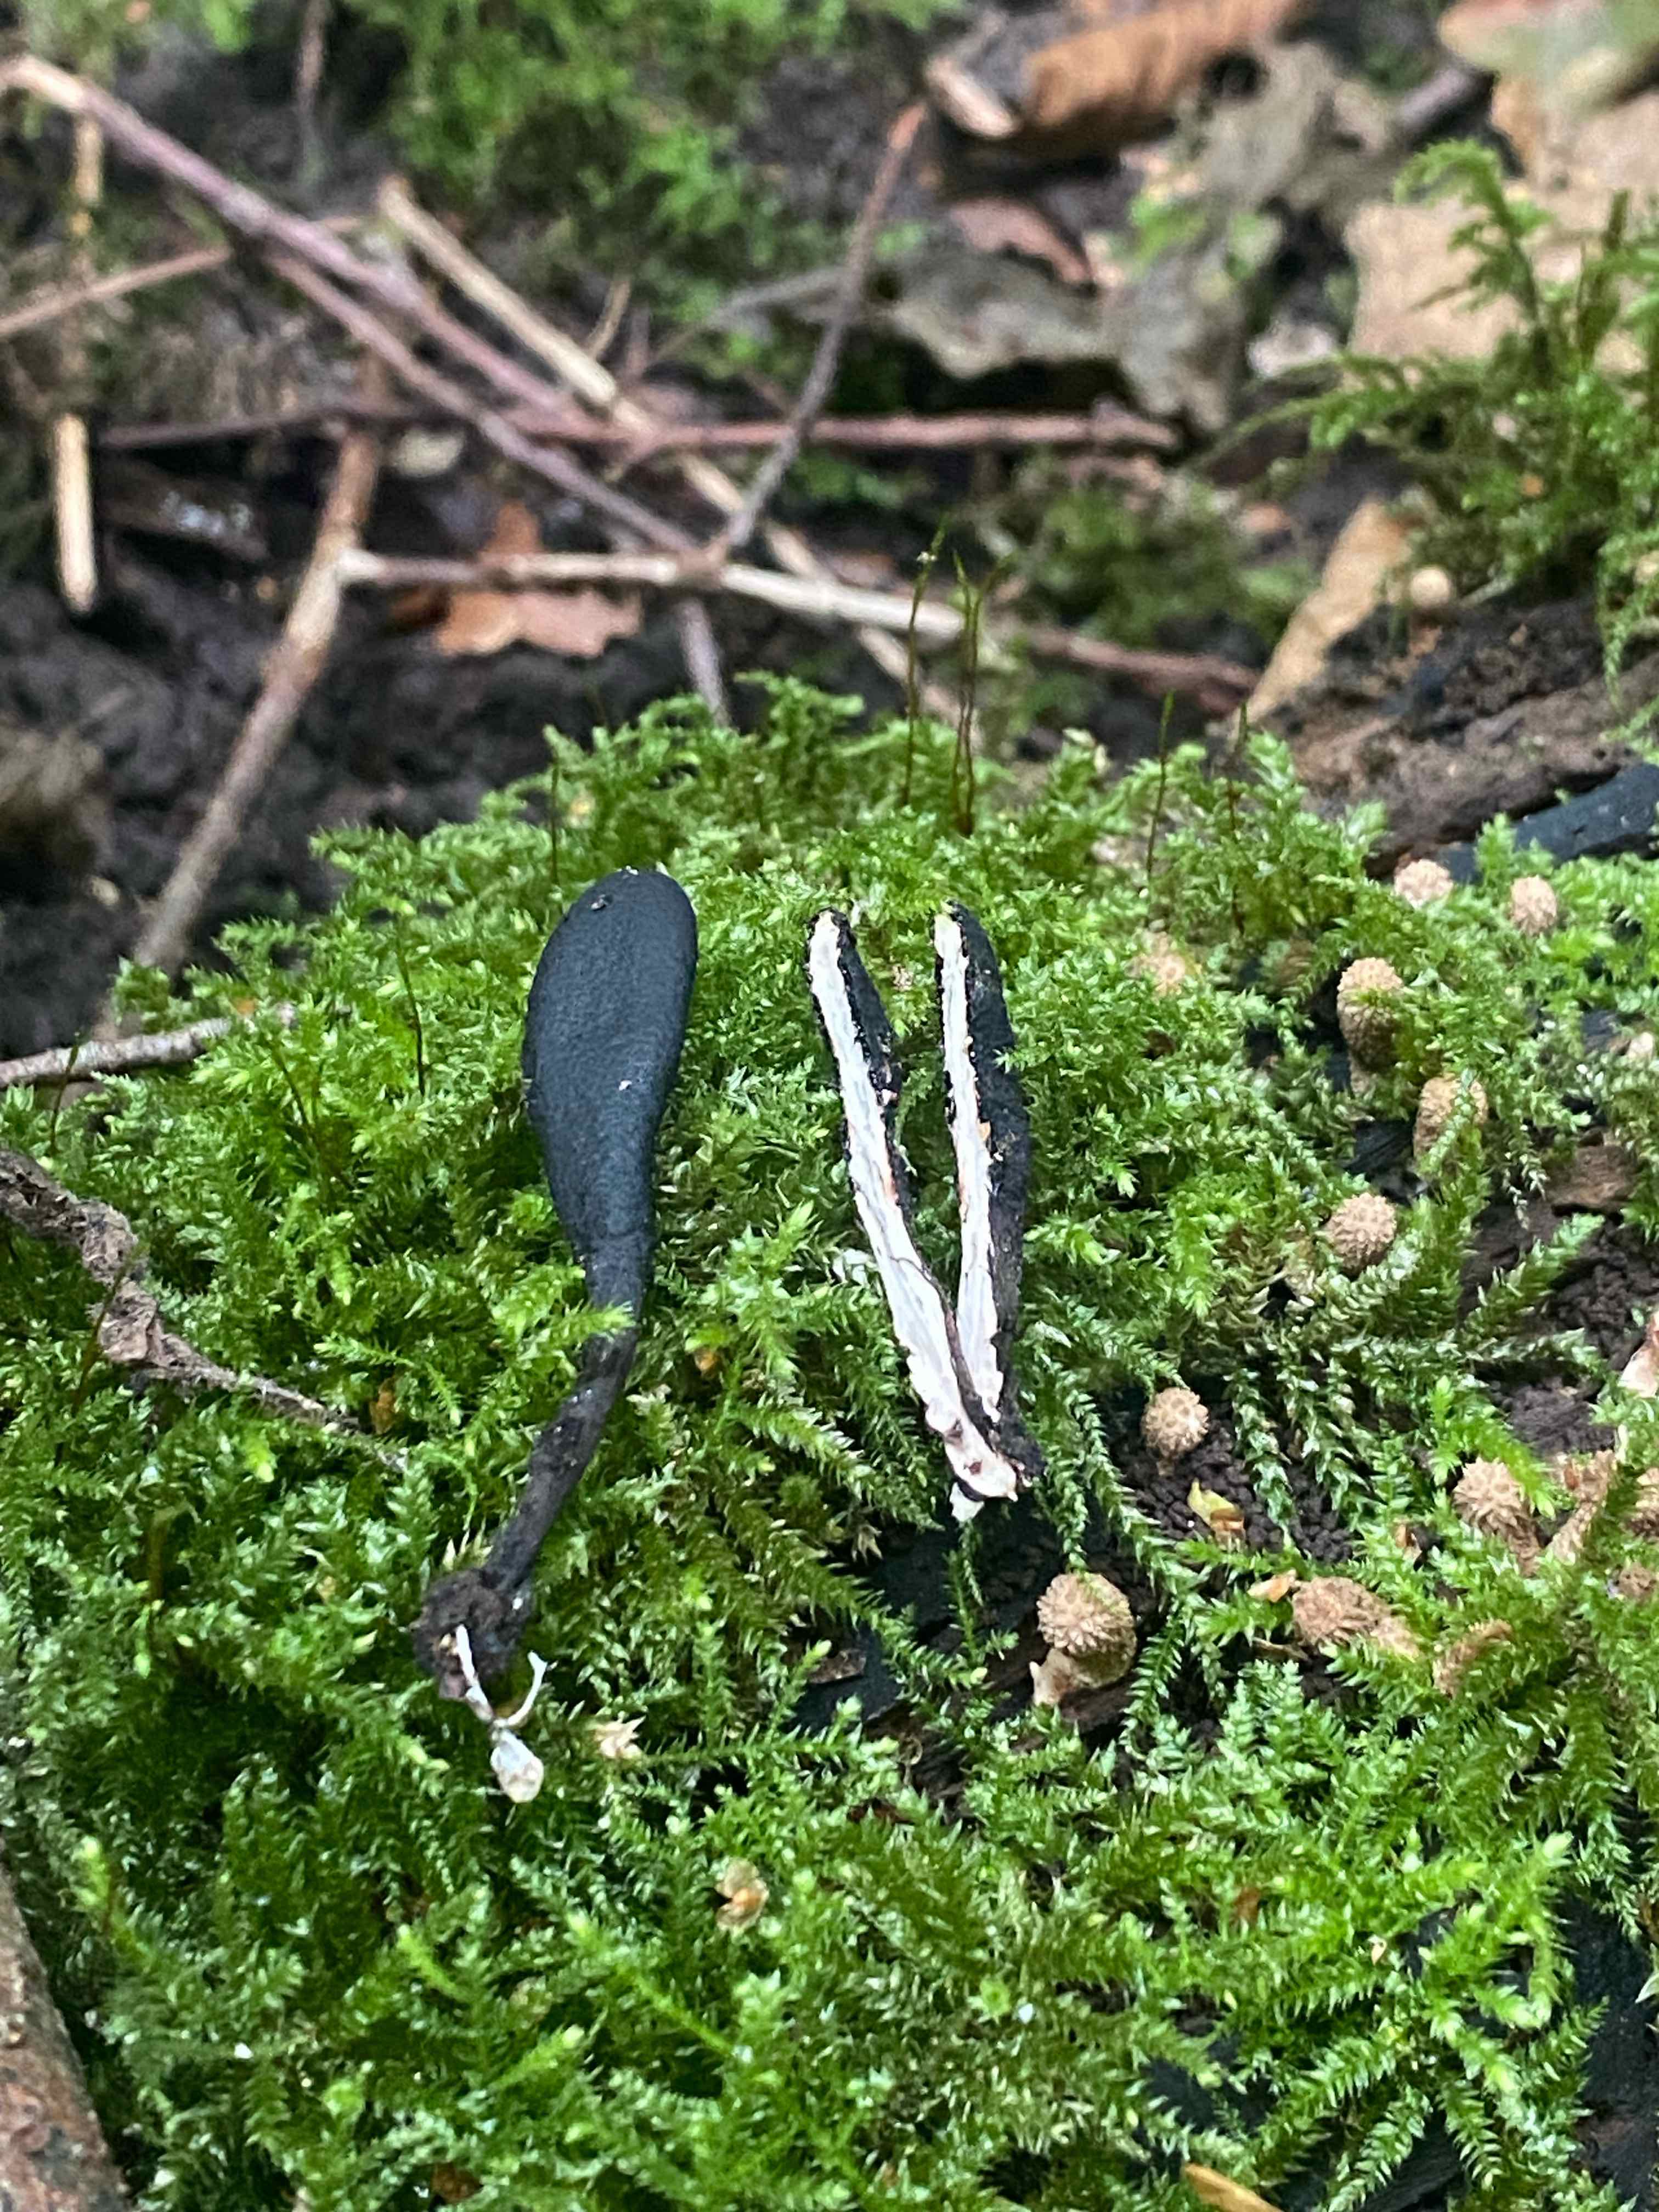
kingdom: Fungi
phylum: Ascomycota
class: Sordariomycetes
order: Xylariales
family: Xylariaceae
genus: Xylaria
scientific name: Xylaria longipes
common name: slank stødsvamp
